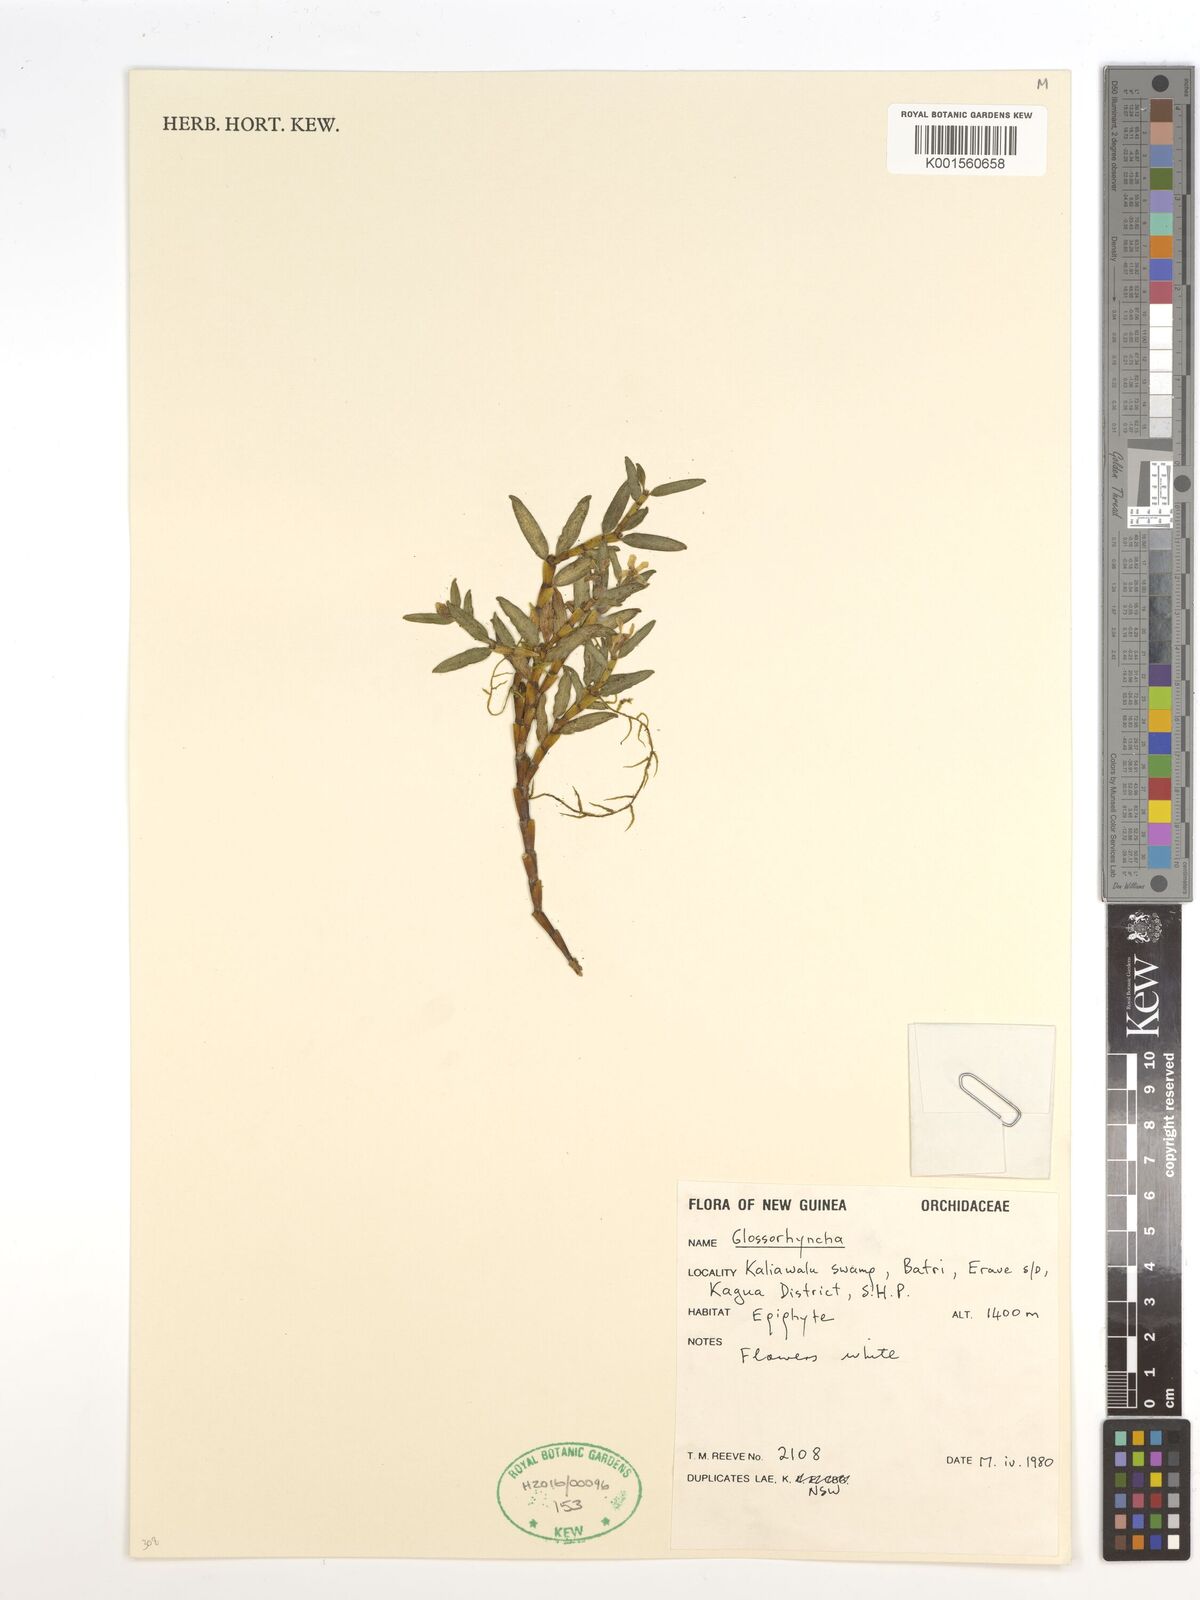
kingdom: Plantae
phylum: Tracheophyta
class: Liliopsida
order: Asparagales
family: Orchidaceae
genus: Glomera
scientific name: Glomera
